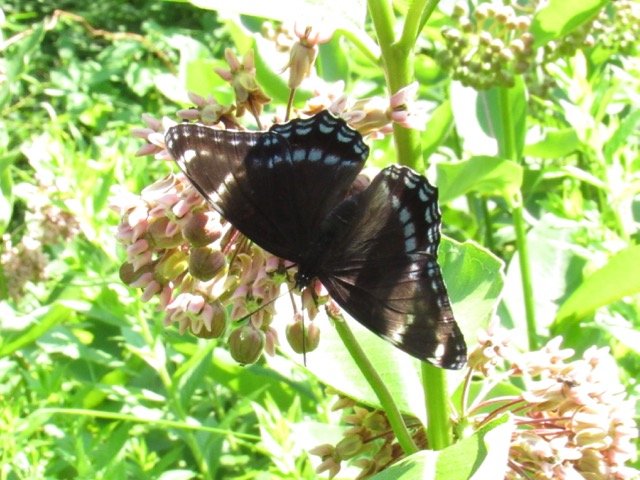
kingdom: Animalia
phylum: Arthropoda
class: Insecta
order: Lepidoptera
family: Nymphalidae
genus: Limenitis
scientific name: Limenitis
